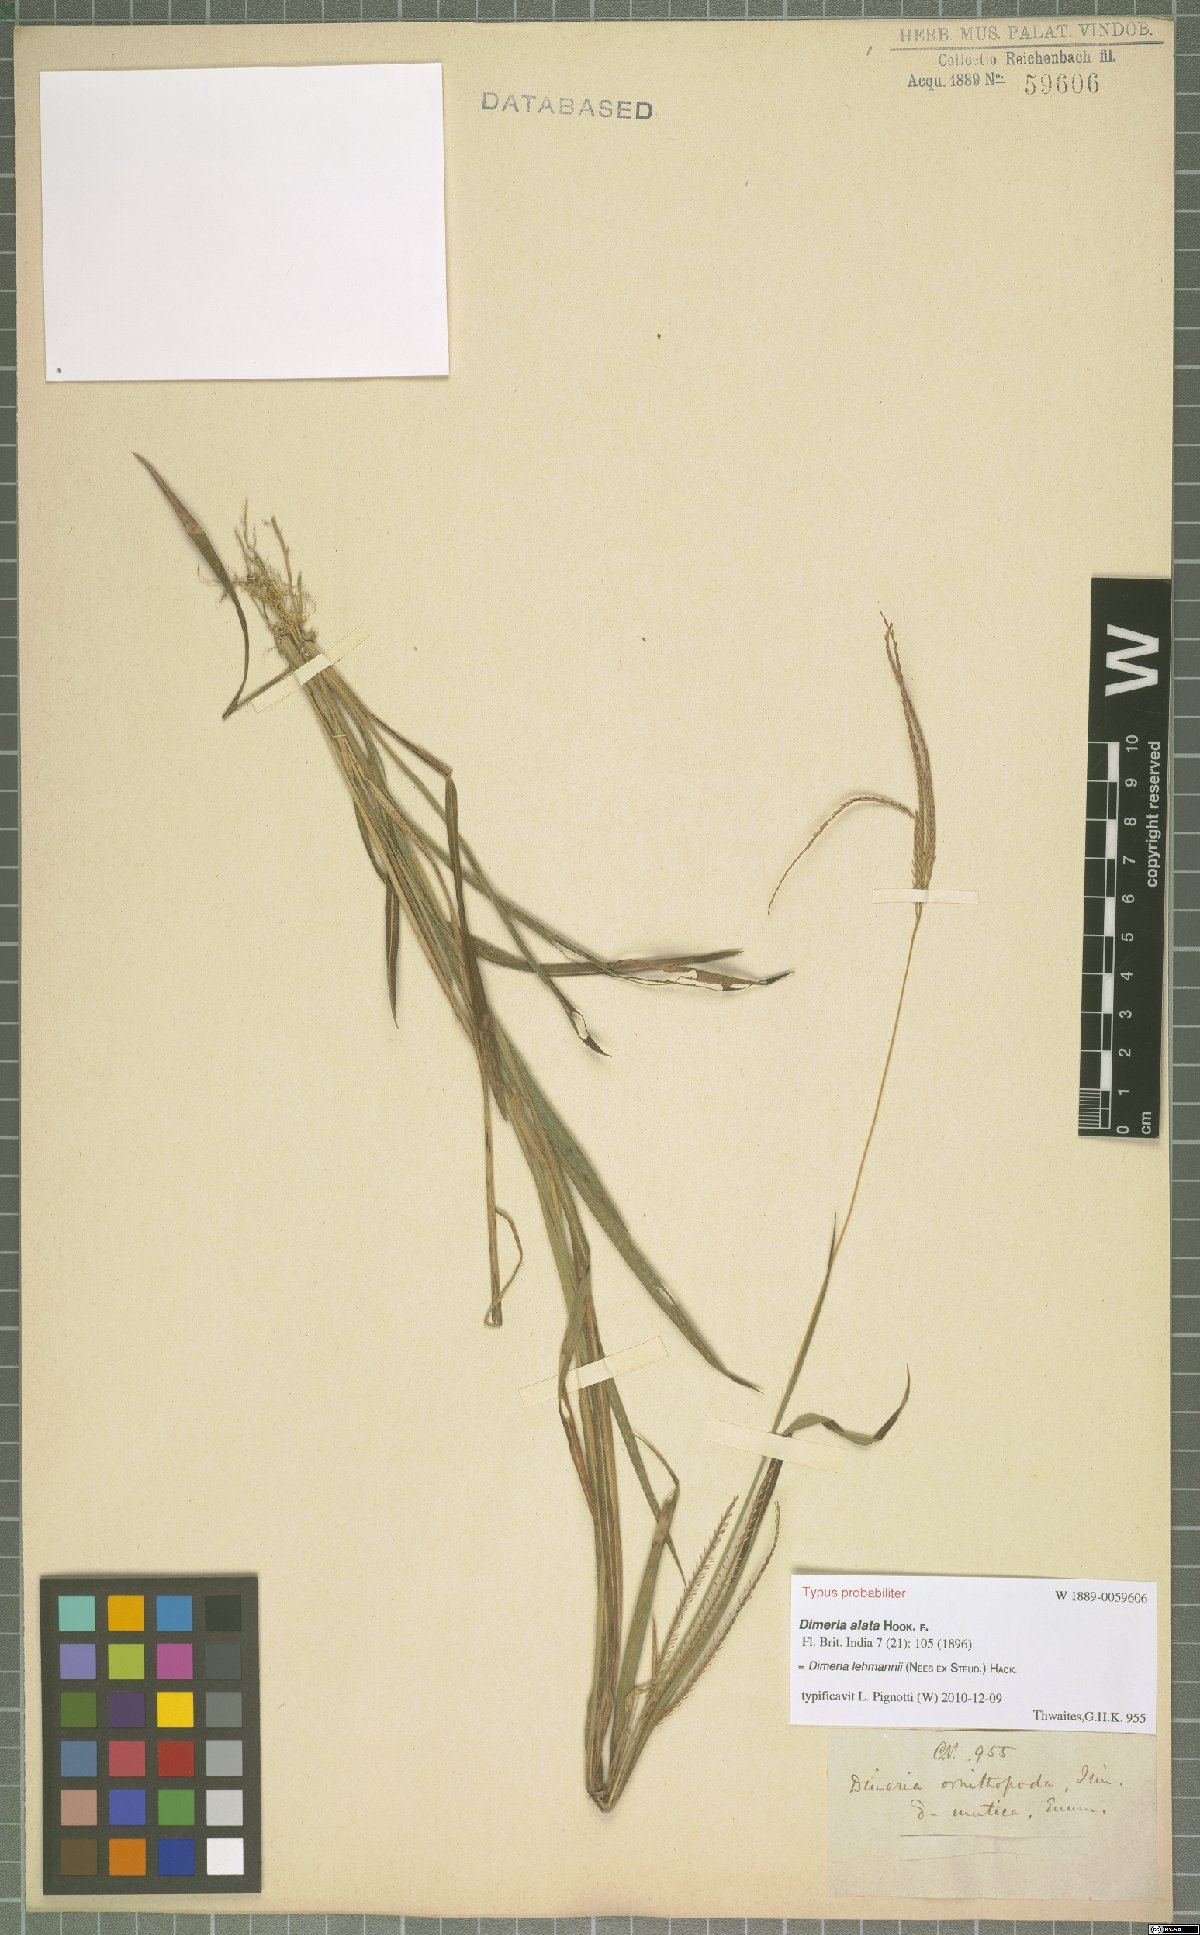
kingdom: Plantae
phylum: Tracheophyta
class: Liliopsida
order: Poales
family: Poaceae
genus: Dimeria
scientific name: Dimeria lehmannii
